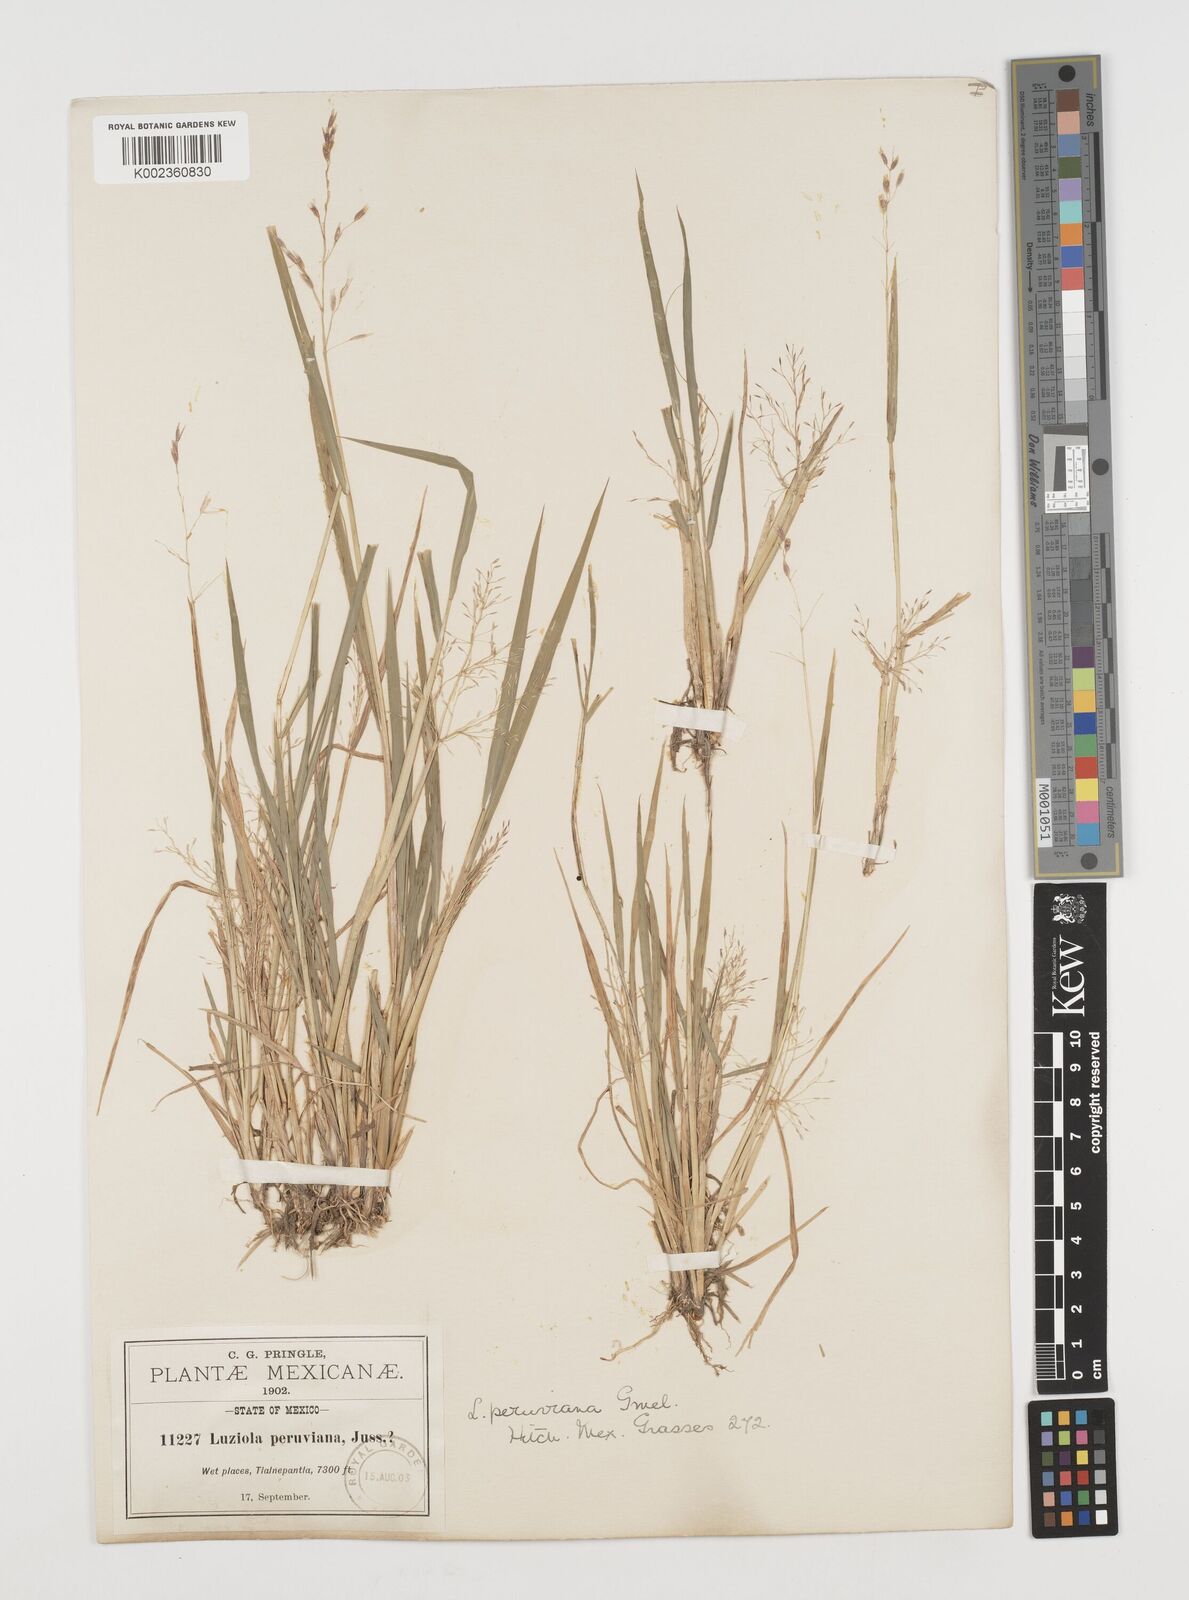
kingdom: Plantae
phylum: Tracheophyta
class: Liliopsida
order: Poales
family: Poaceae
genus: Luziola
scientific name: Luziola peruviana
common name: Peruvian watergrass
